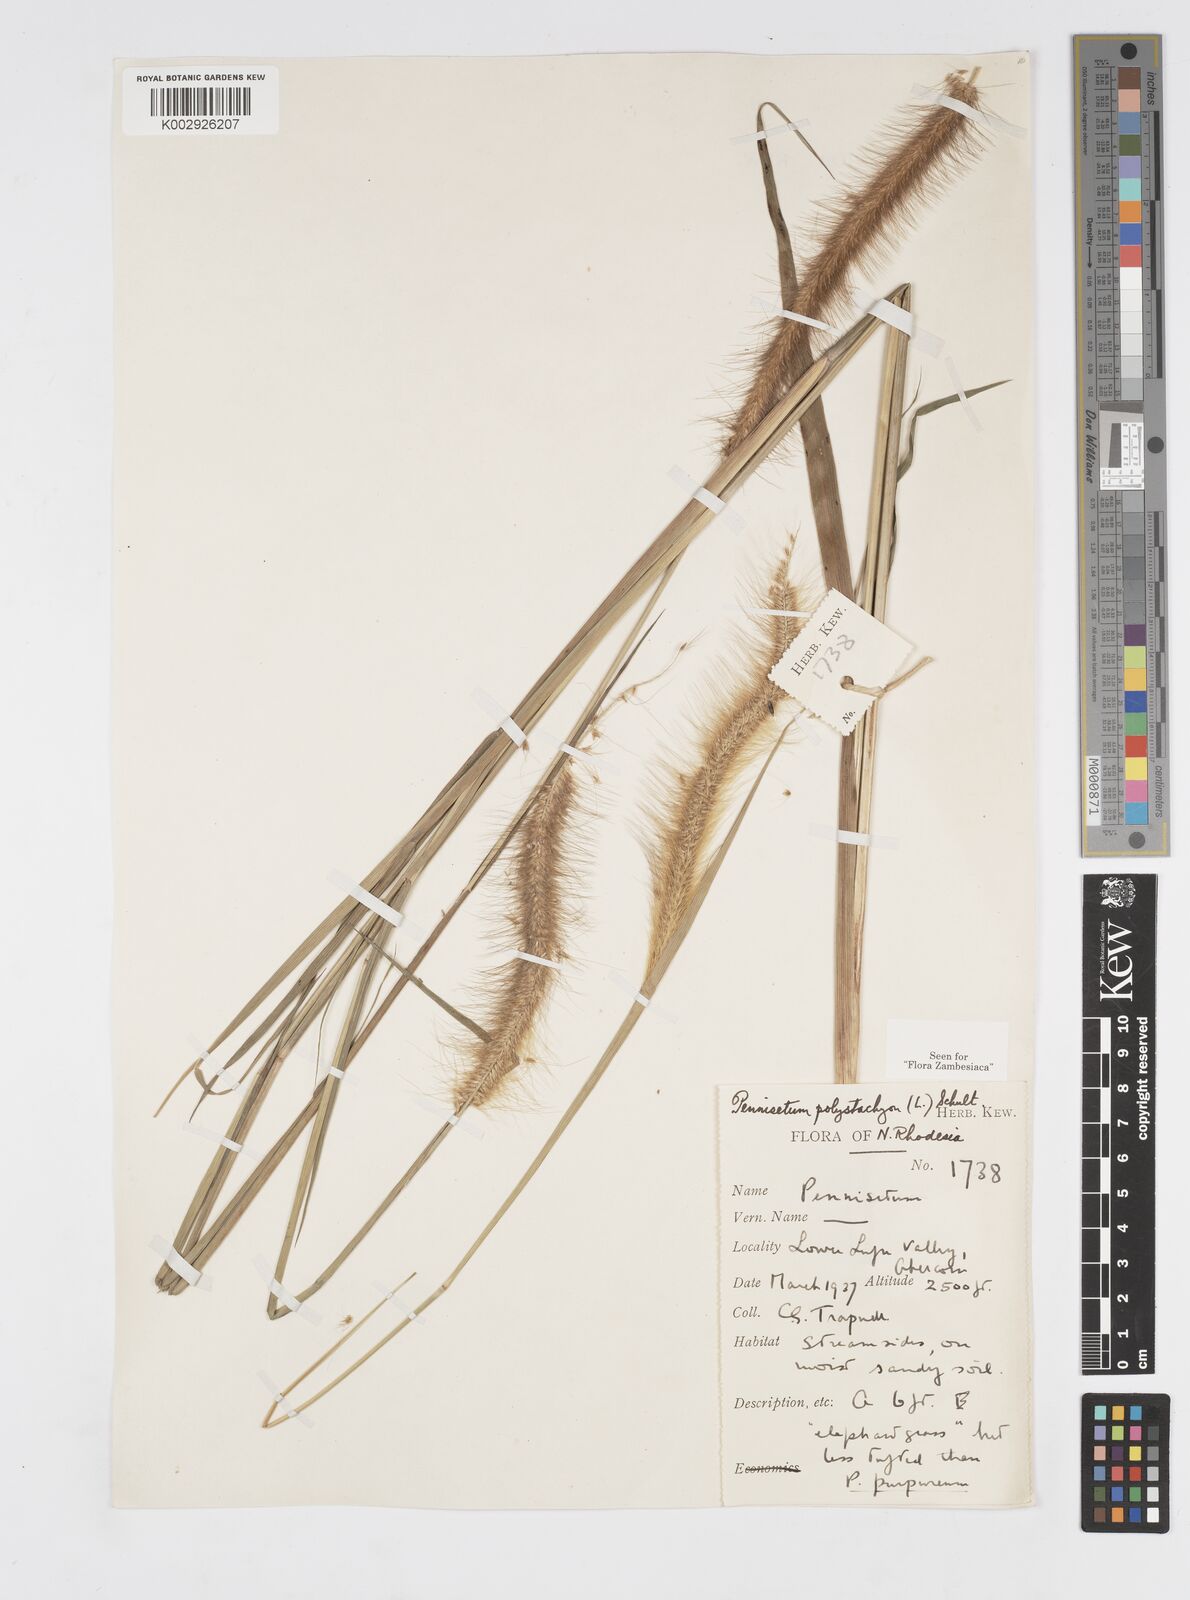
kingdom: Plantae
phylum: Tracheophyta
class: Liliopsida
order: Poales
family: Poaceae
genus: Setaria
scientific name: Setaria parviflora
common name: Knotroot bristle-grass
